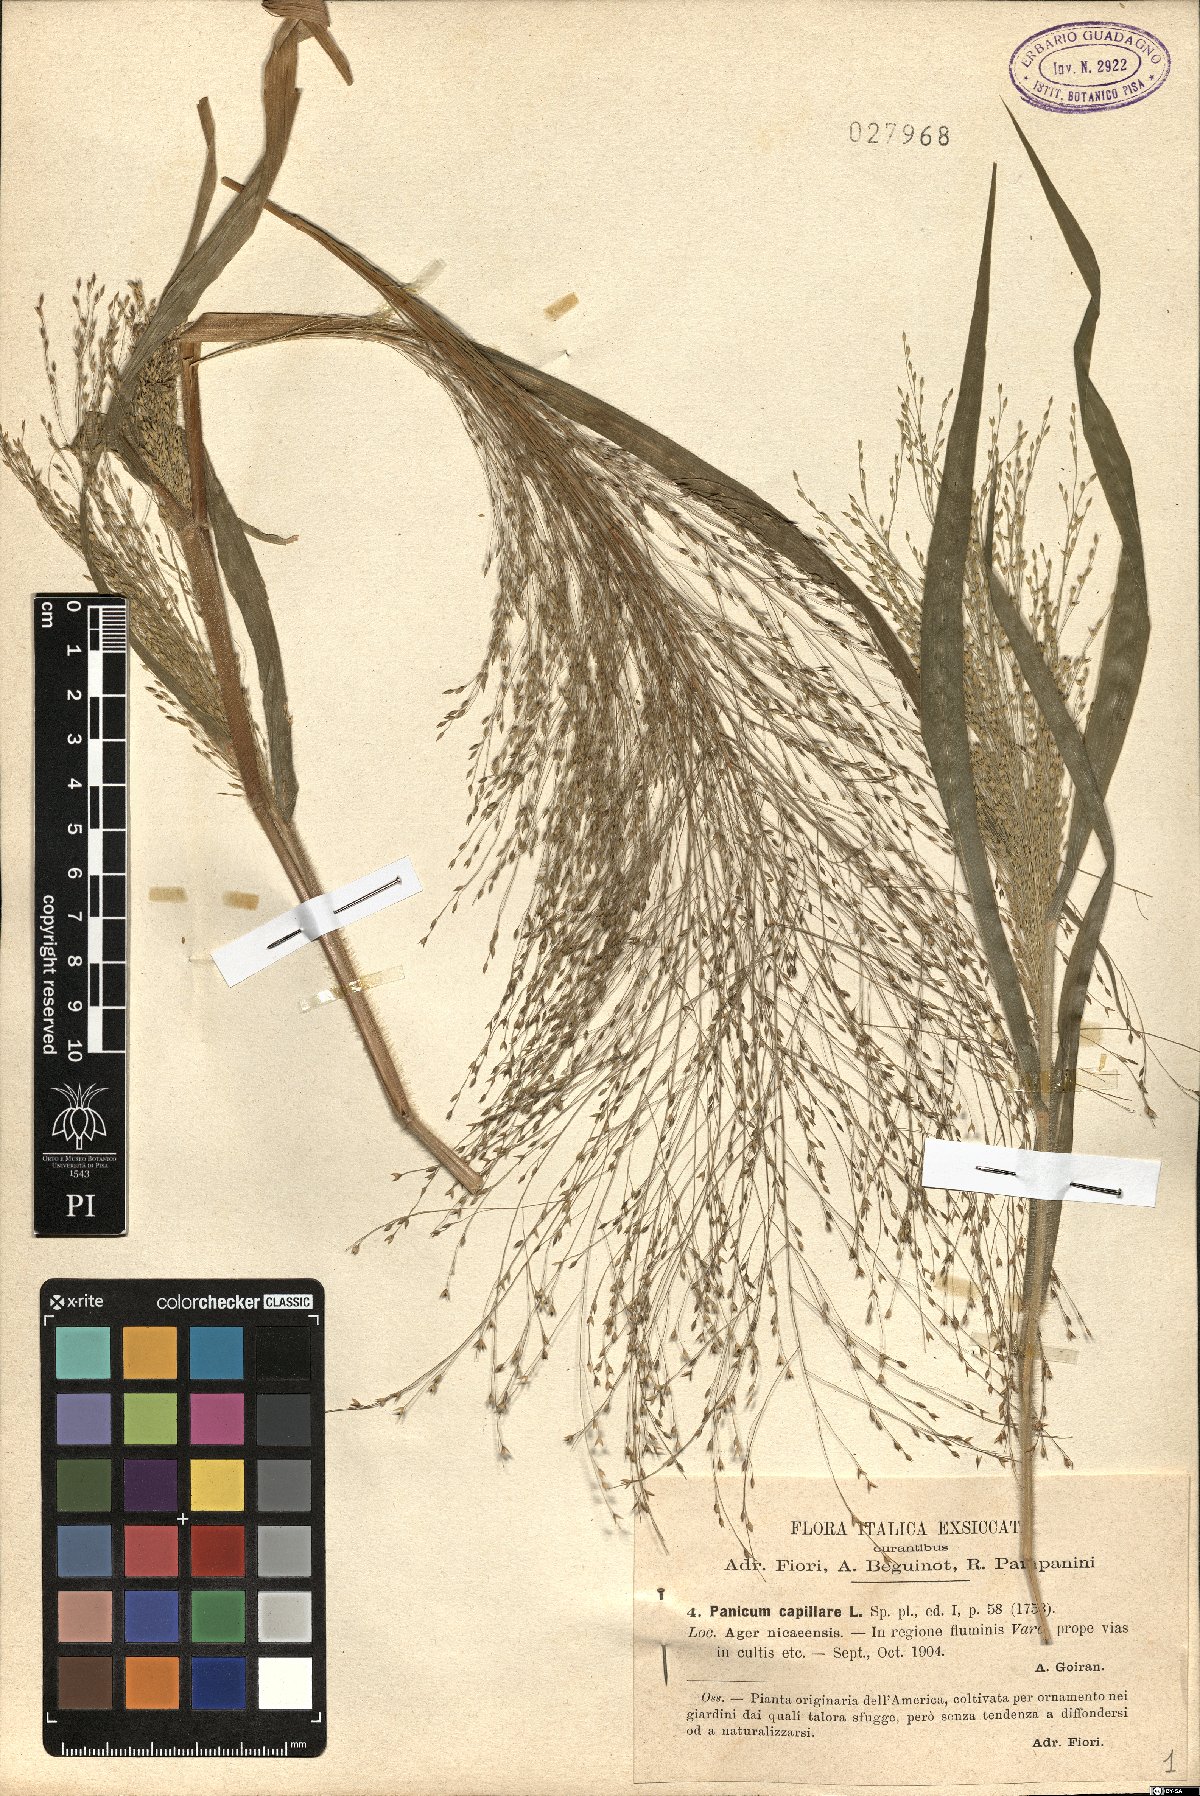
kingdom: Plantae
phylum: Tracheophyta
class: Liliopsida
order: Poales
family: Poaceae
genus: Panicum
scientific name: Panicum capillare
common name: Witch-grass
